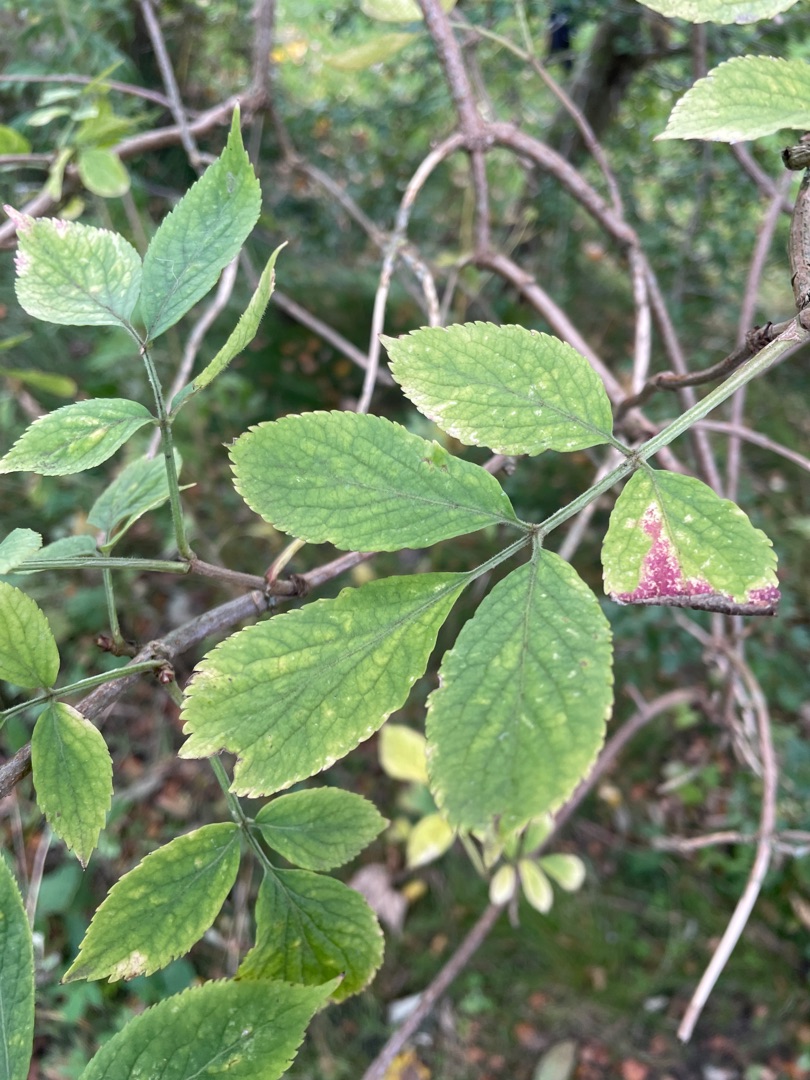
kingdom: Plantae
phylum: Tracheophyta
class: Magnoliopsida
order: Dipsacales
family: Viburnaceae
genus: Sambucus
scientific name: Sambucus nigra
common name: Almindelig hyld
